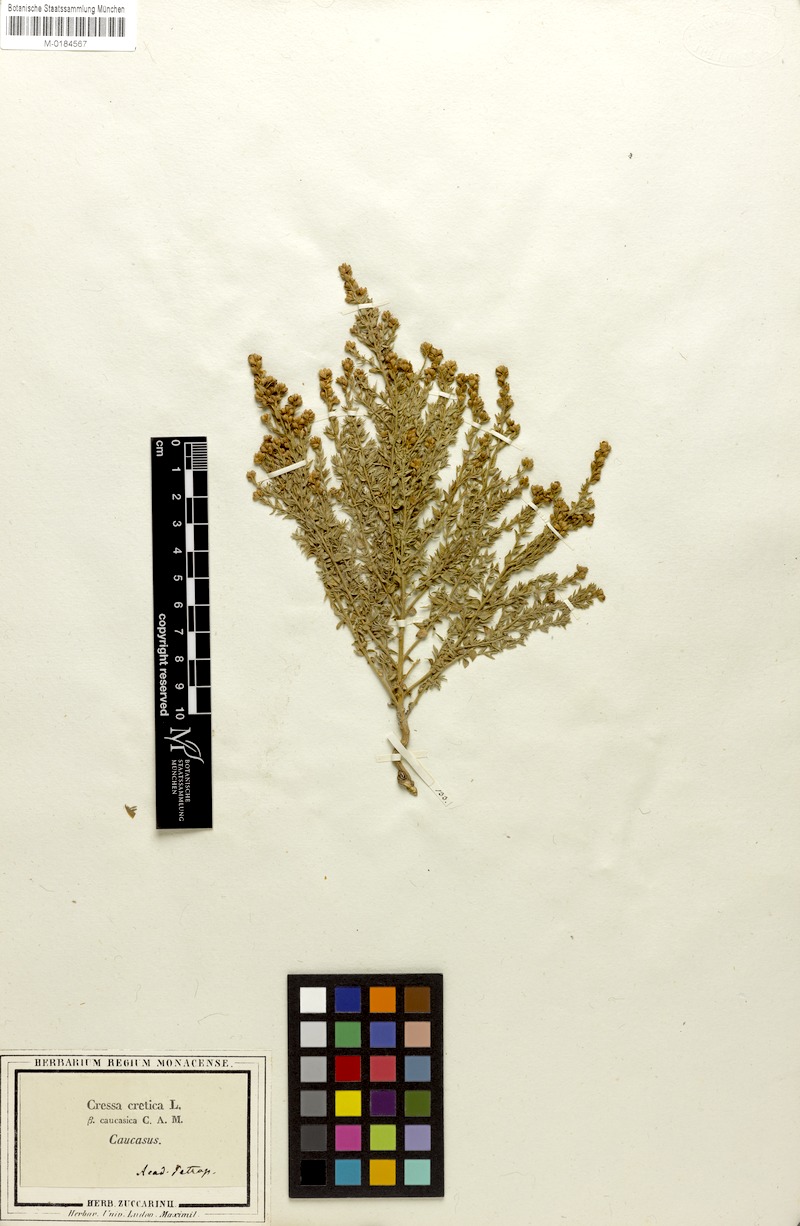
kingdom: Plantae
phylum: Tracheophyta
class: Magnoliopsida
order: Solanales
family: Convolvulaceae
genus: Cressa
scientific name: Cressa cretica
